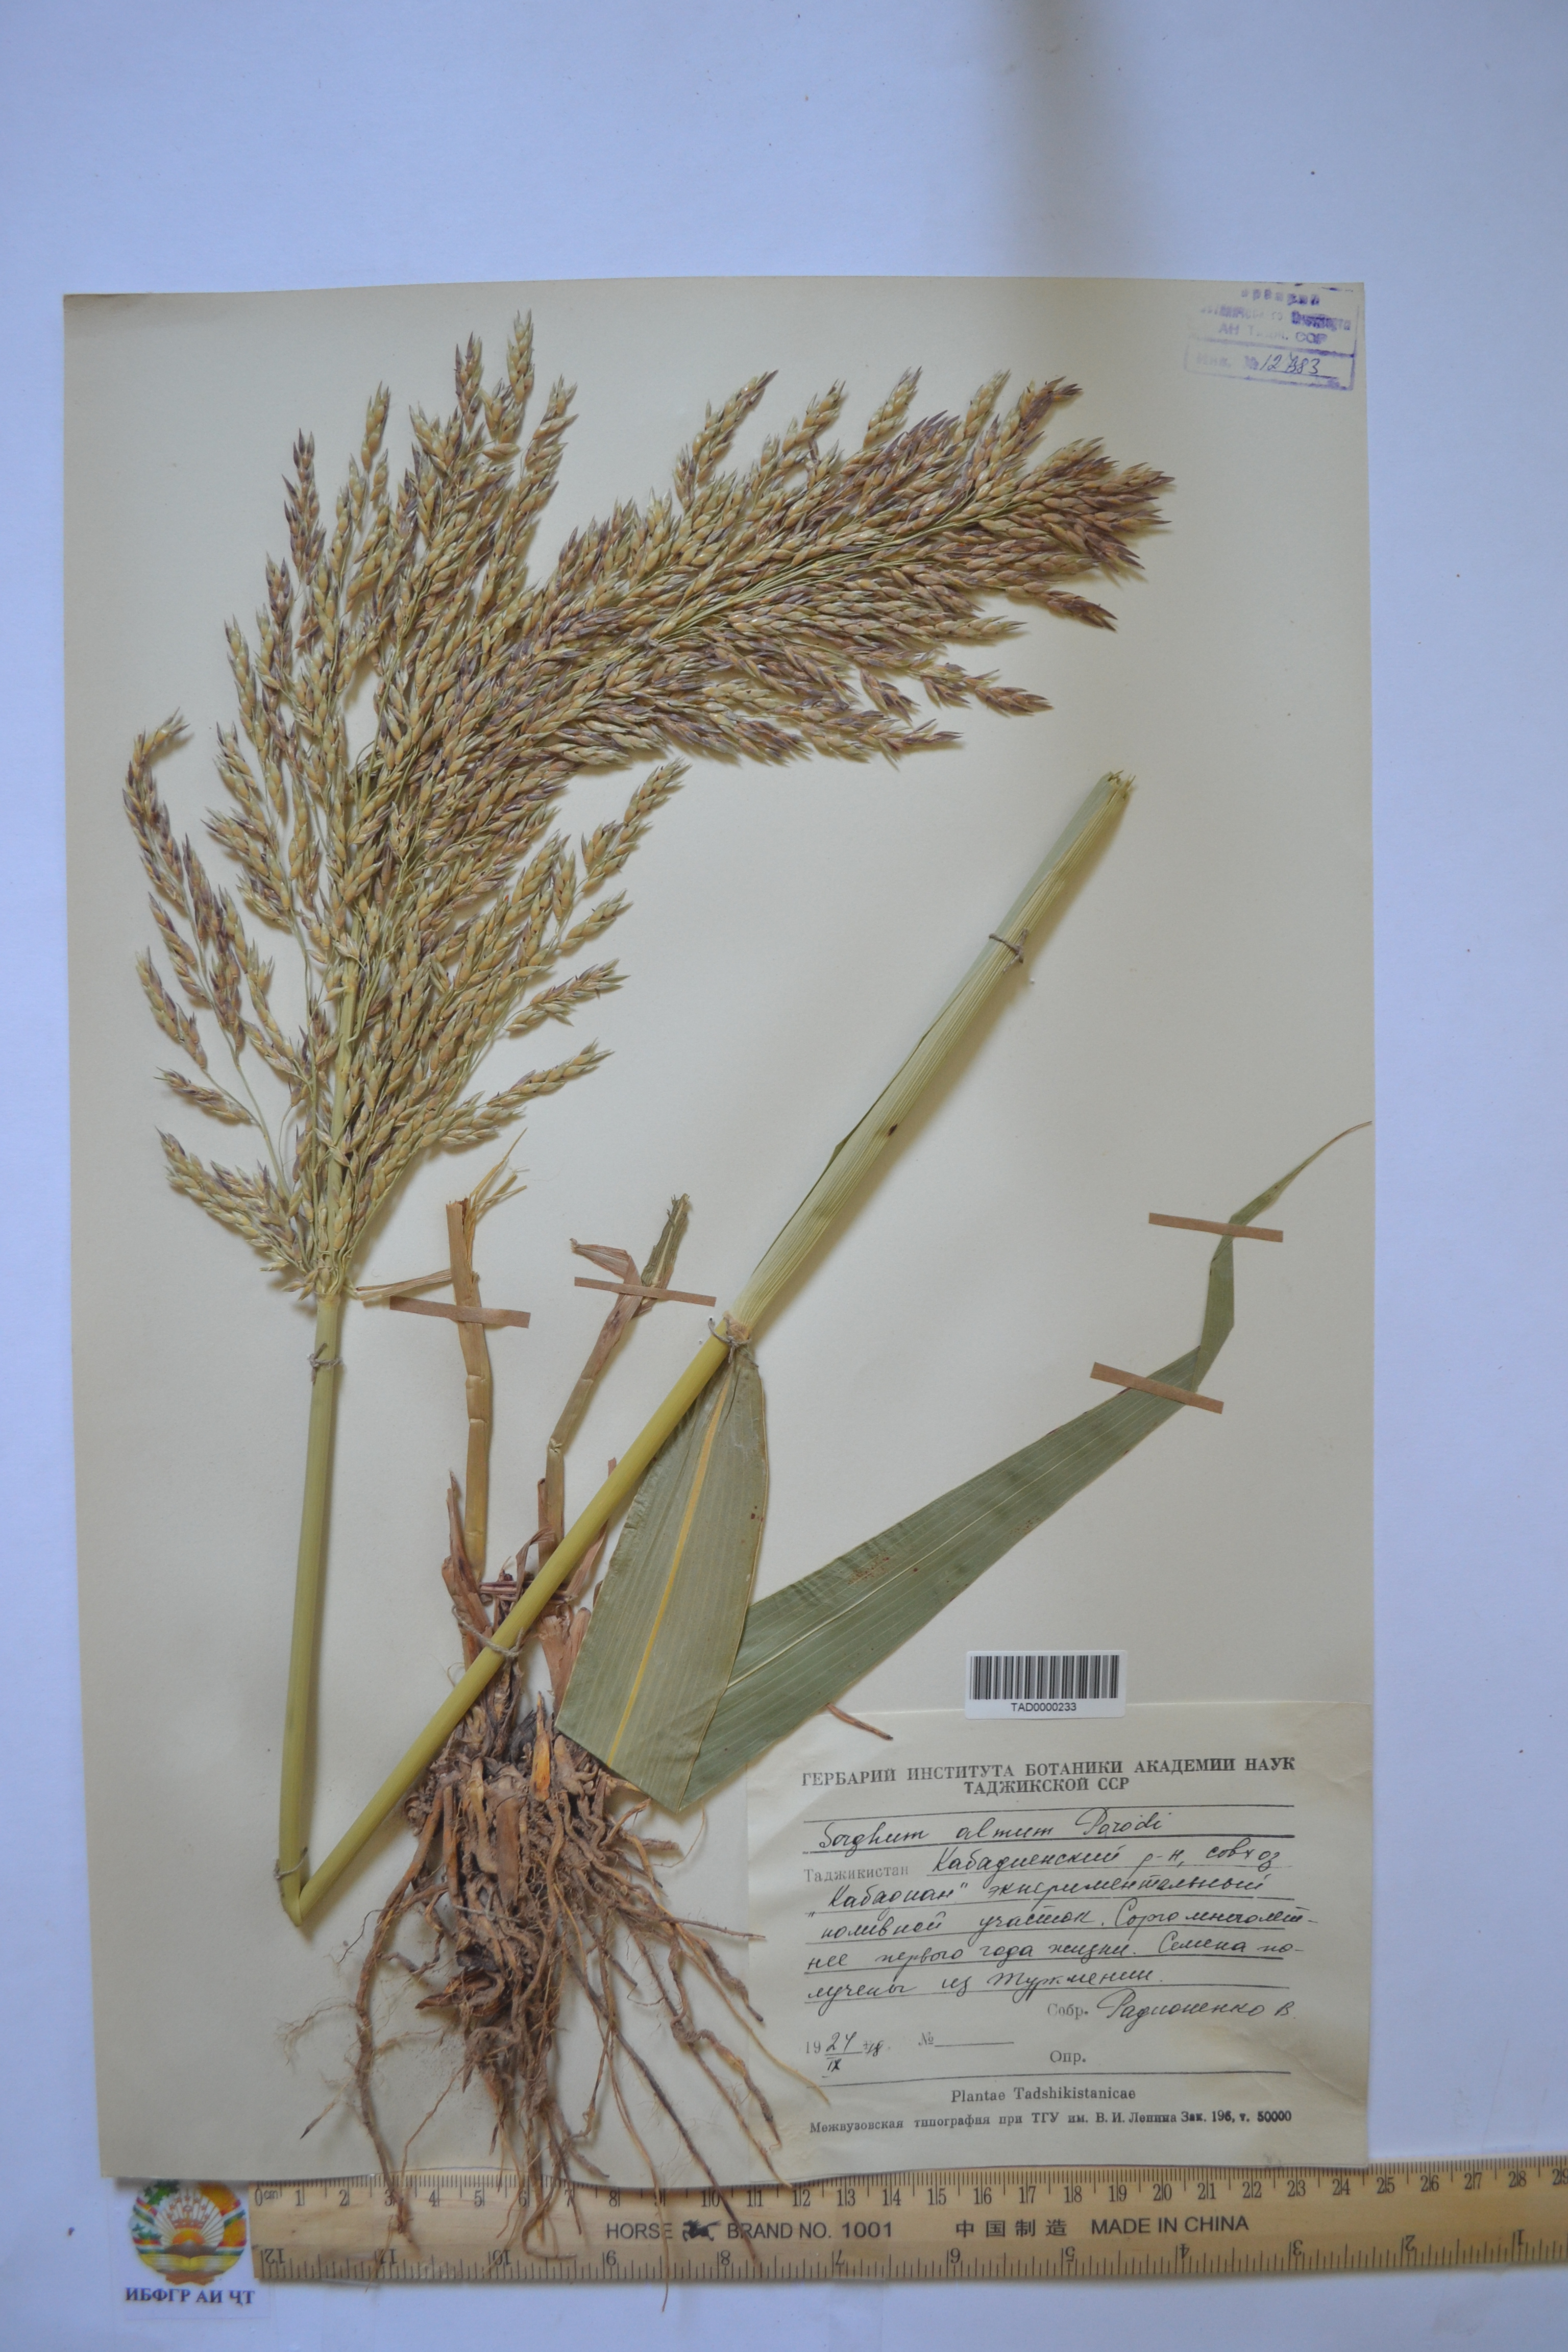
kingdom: Plantae
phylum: Tracheophyta
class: Liliopsida
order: Poales
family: Poaceae
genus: Sorghum
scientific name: Sorghum almum
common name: Columbus grass
